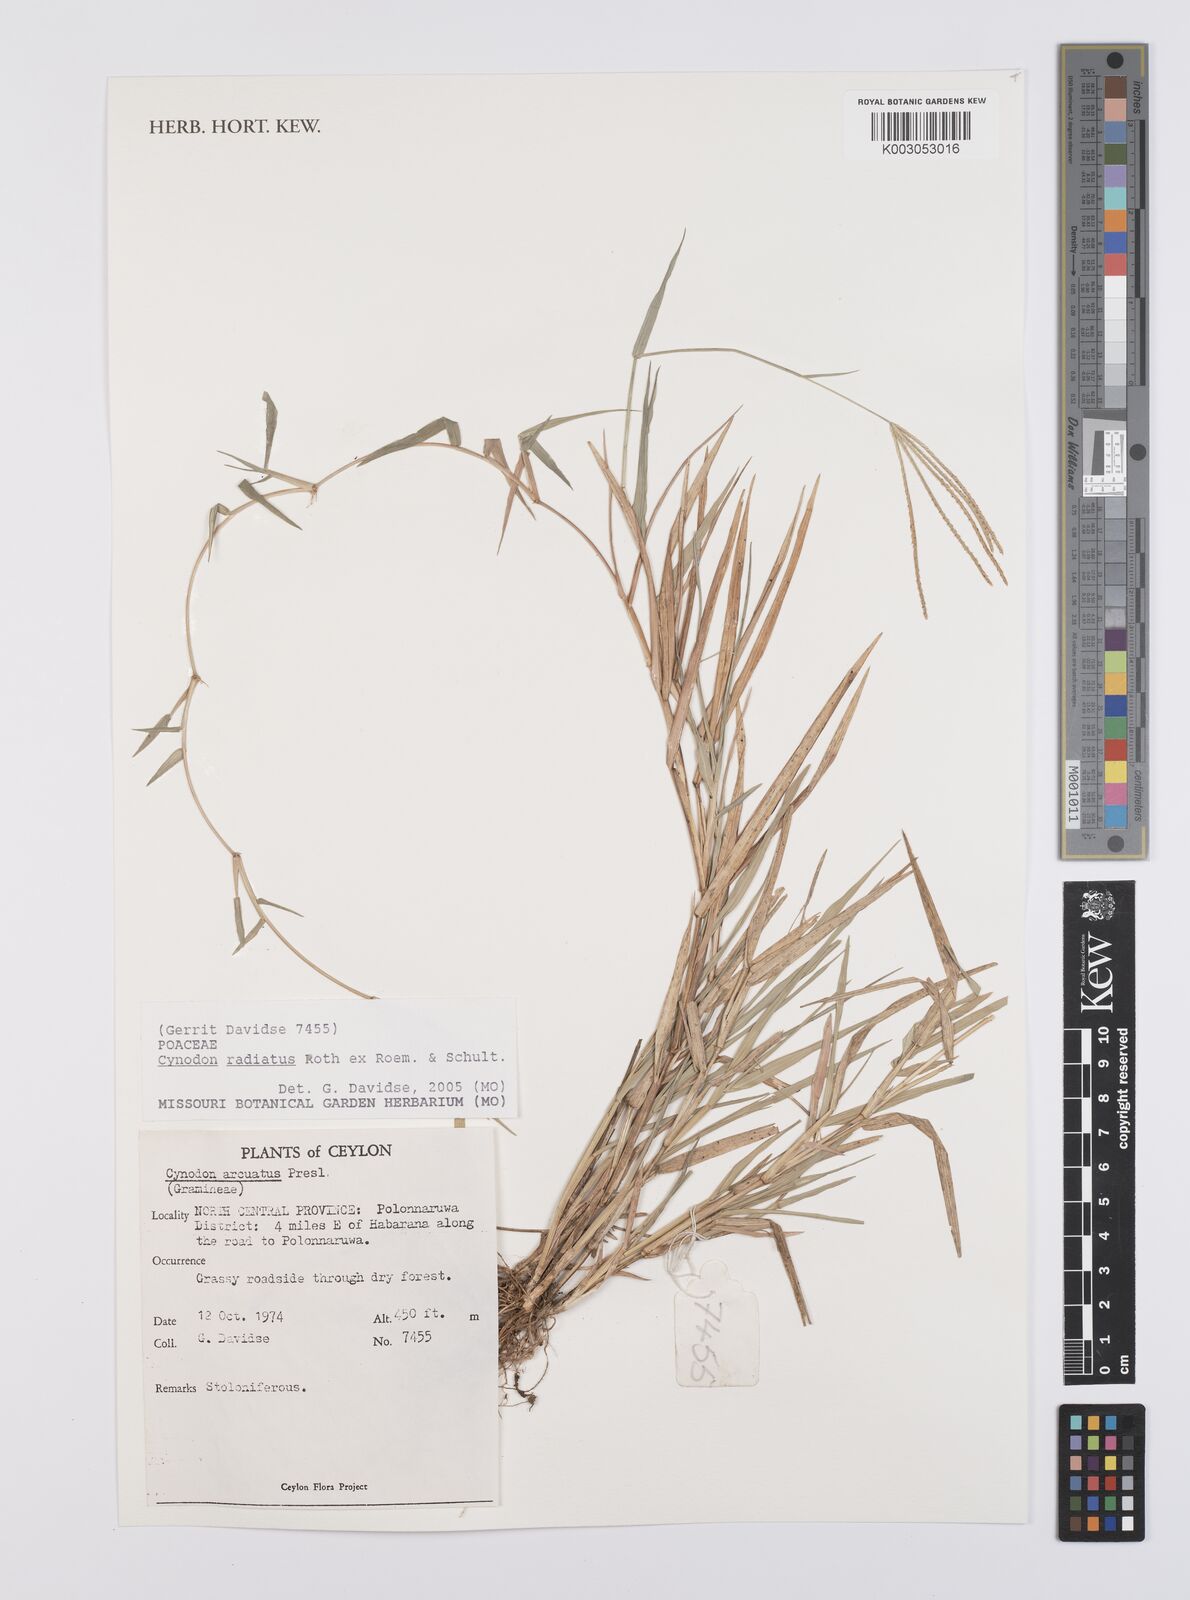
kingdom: Plantae
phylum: Tracheophyta
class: Liliopsida
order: Poales
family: Poaceae
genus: Cynodon
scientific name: Cynodon radiatus
